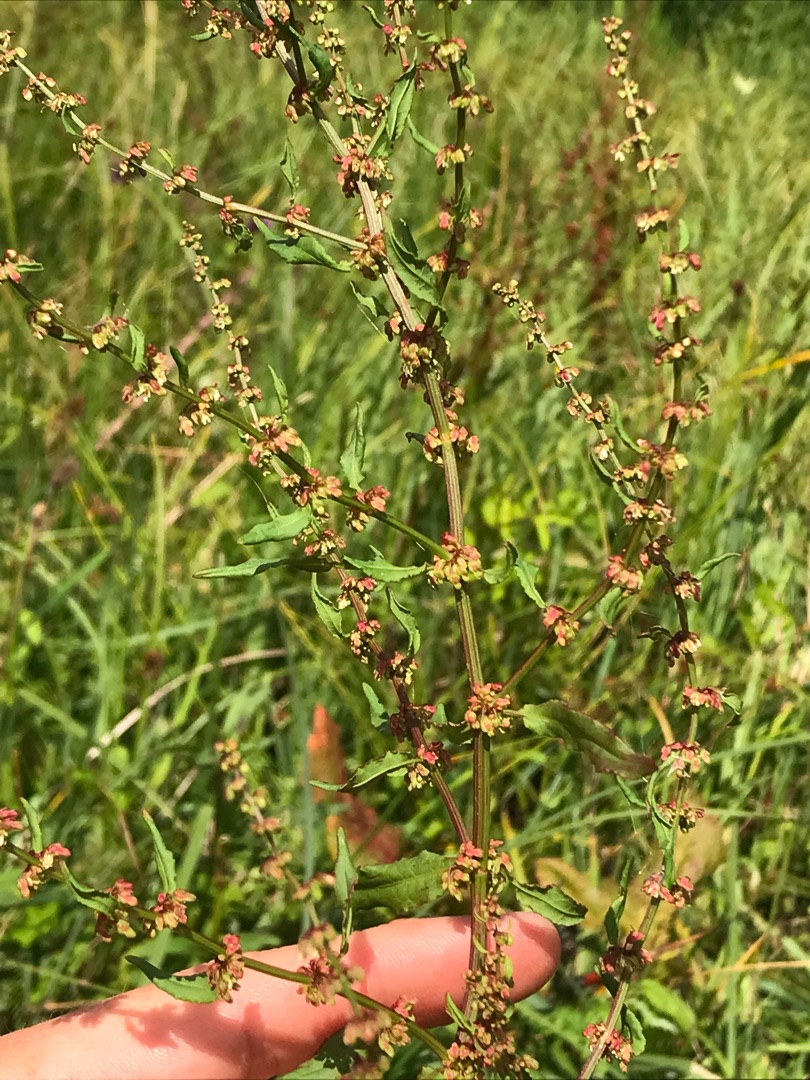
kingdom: Plantae
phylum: Tracheophyta
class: Magnoliopsida
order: Caryophyllales
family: Polygonaceae
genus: Rumex
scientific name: Rumex conglomeratus
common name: Nøgle-skræppe
